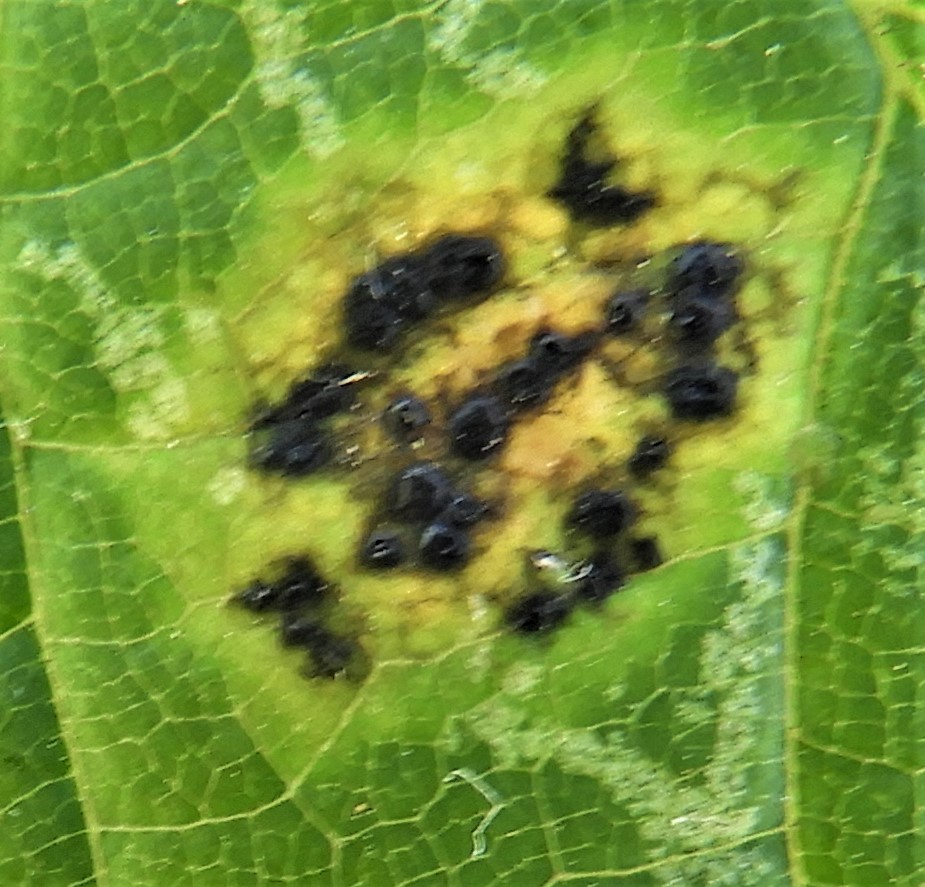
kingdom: Fungi
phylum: Ascomycota
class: Leotiomycetes
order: Rhytismatales
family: Rhytismataceae
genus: Rhytisma
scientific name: Rhytisma acerinum
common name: ahorn-rynkeplet
